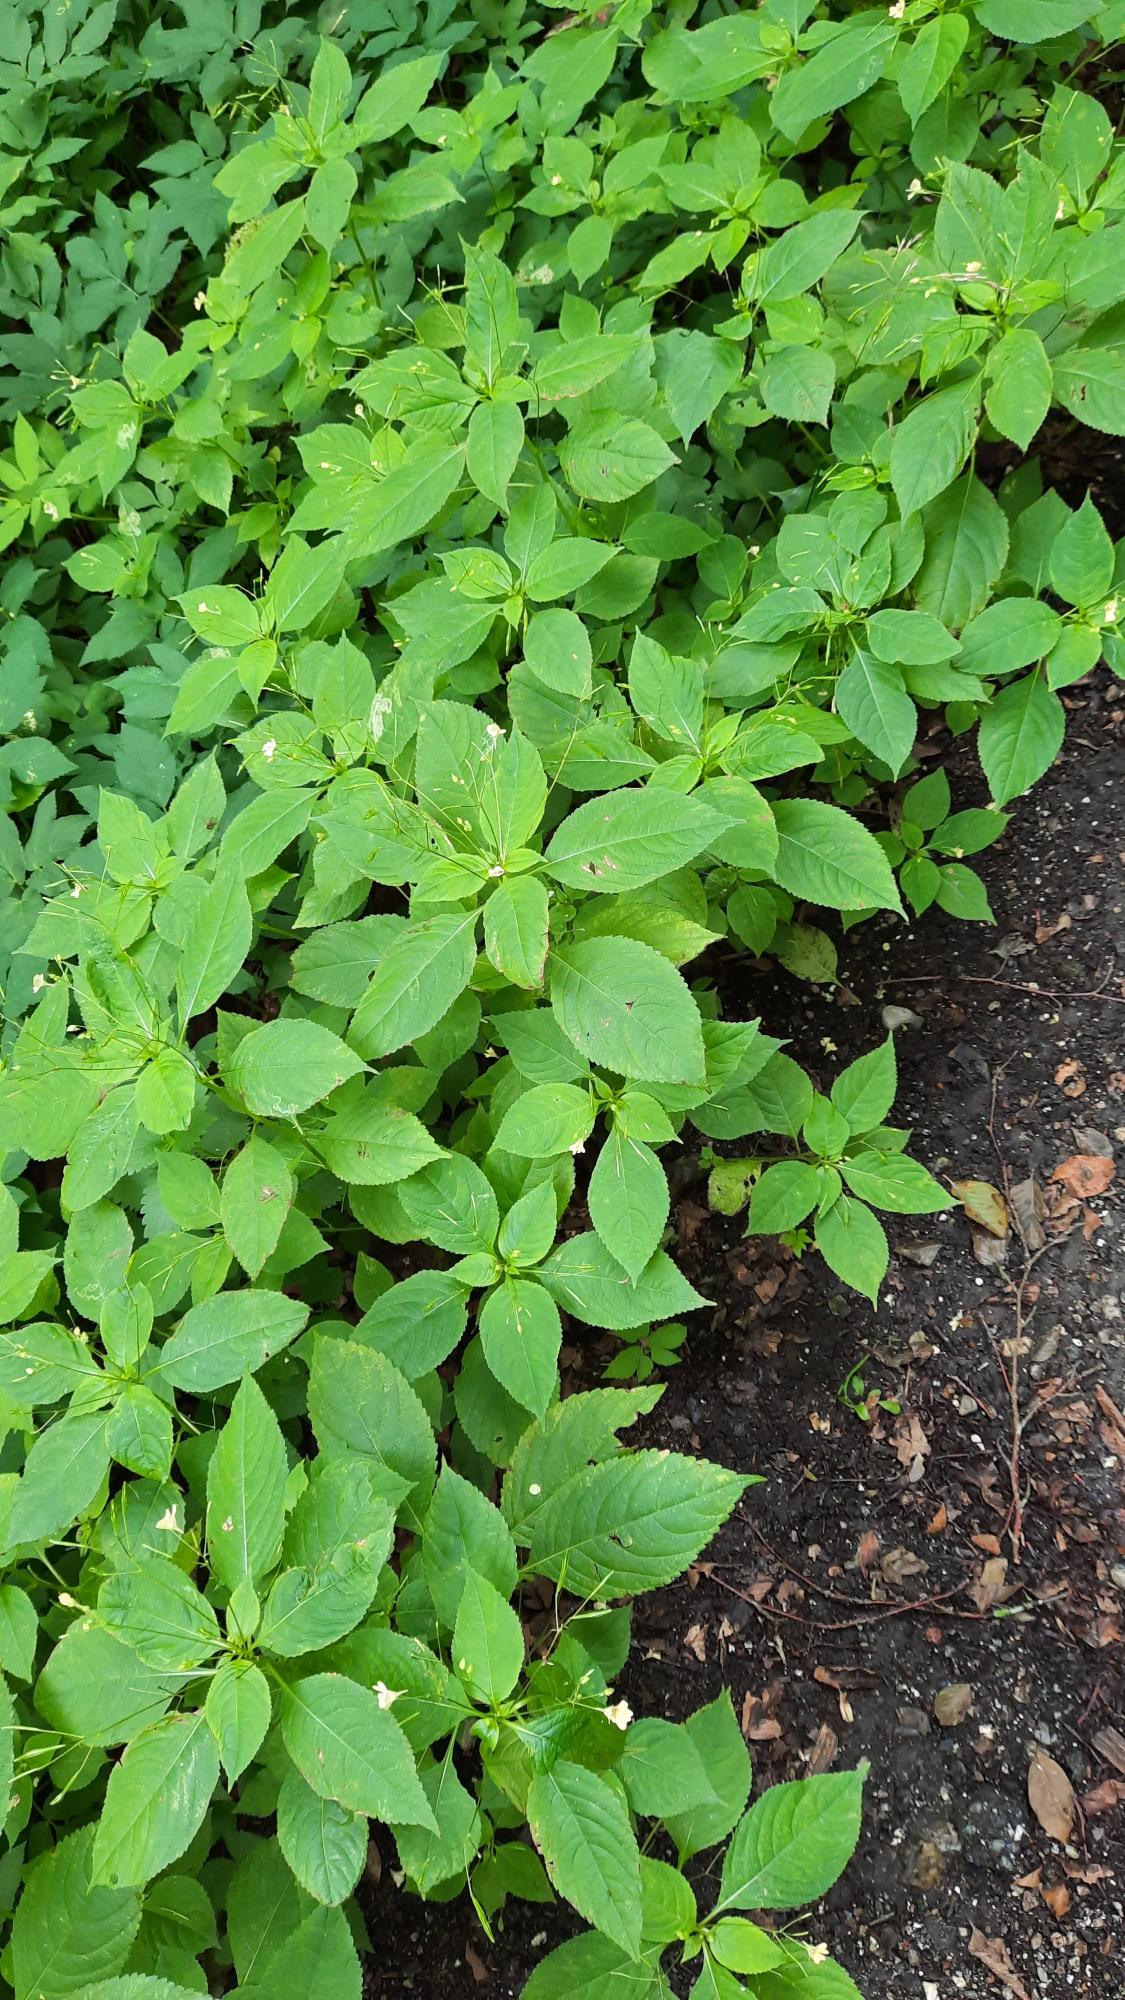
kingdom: Plantae
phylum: Tracheophyta
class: Magnoliopsida
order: Ericales
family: Balsaminaceae
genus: Impatiens
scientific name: Impatiens parviflora
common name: Småblomstret balsamin
